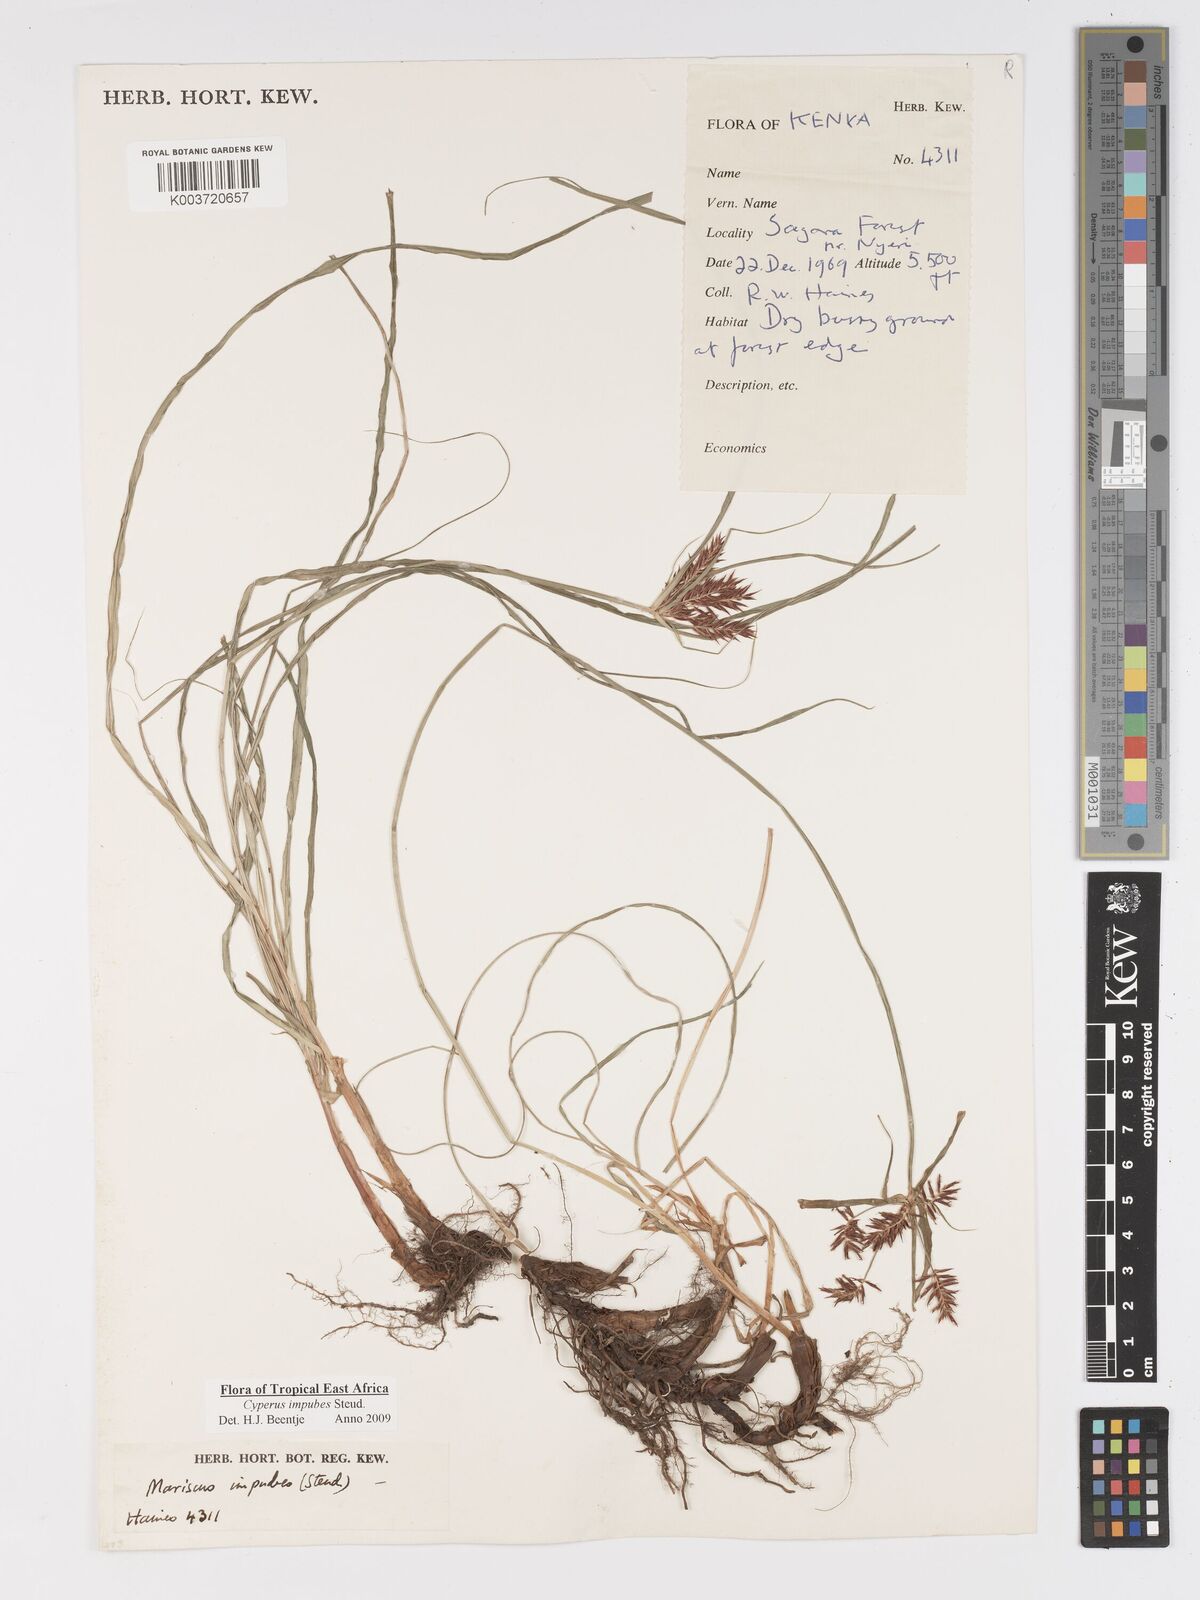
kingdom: Plantae
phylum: Tracheophyta
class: Liliopsida
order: Poales
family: Cyperaceae
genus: Cyperus
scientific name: Cyperus impubes
